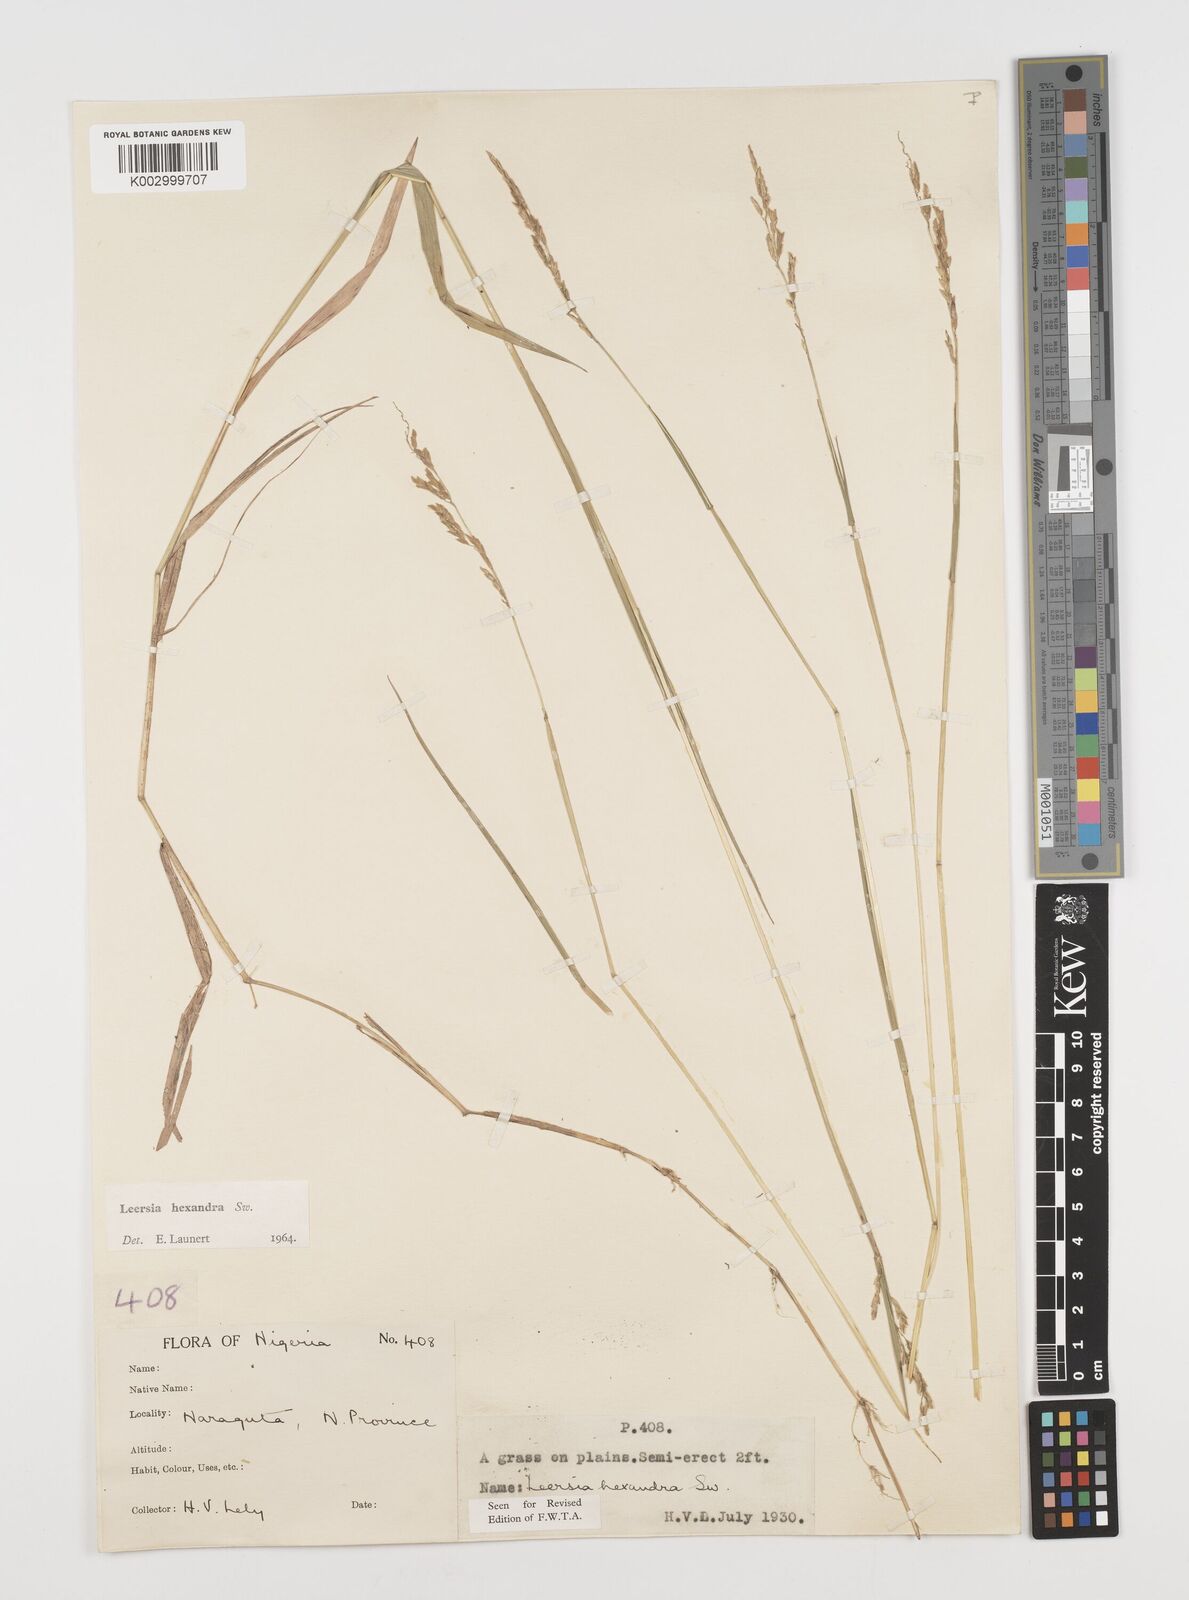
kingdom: Plantae
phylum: Tracheophyta
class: Liliopsida
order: Poales
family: Poaceae
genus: Leersia
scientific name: Leersia hexandra
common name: Southern cut grass
